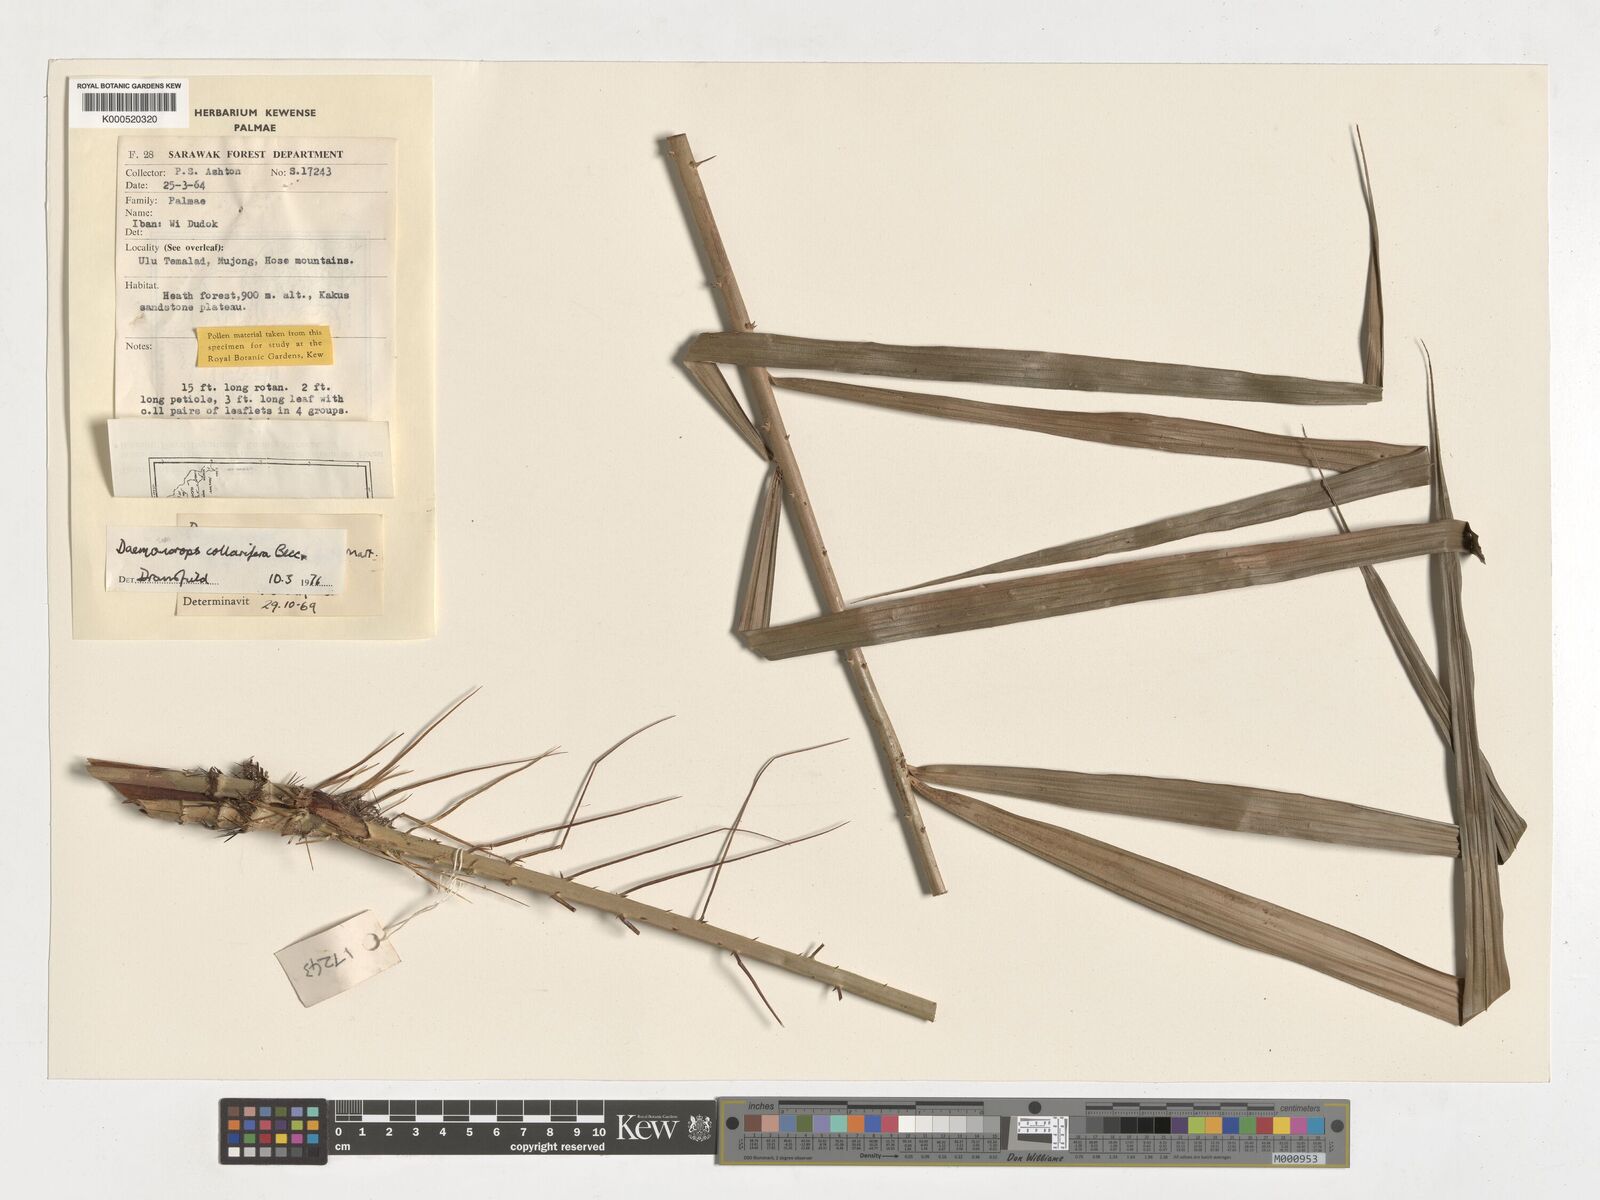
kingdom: Plantae
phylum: Tracheophyta
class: Liliopsida
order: Arecales
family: Arecaceae
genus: Calamus
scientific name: Calamus geniculatus
